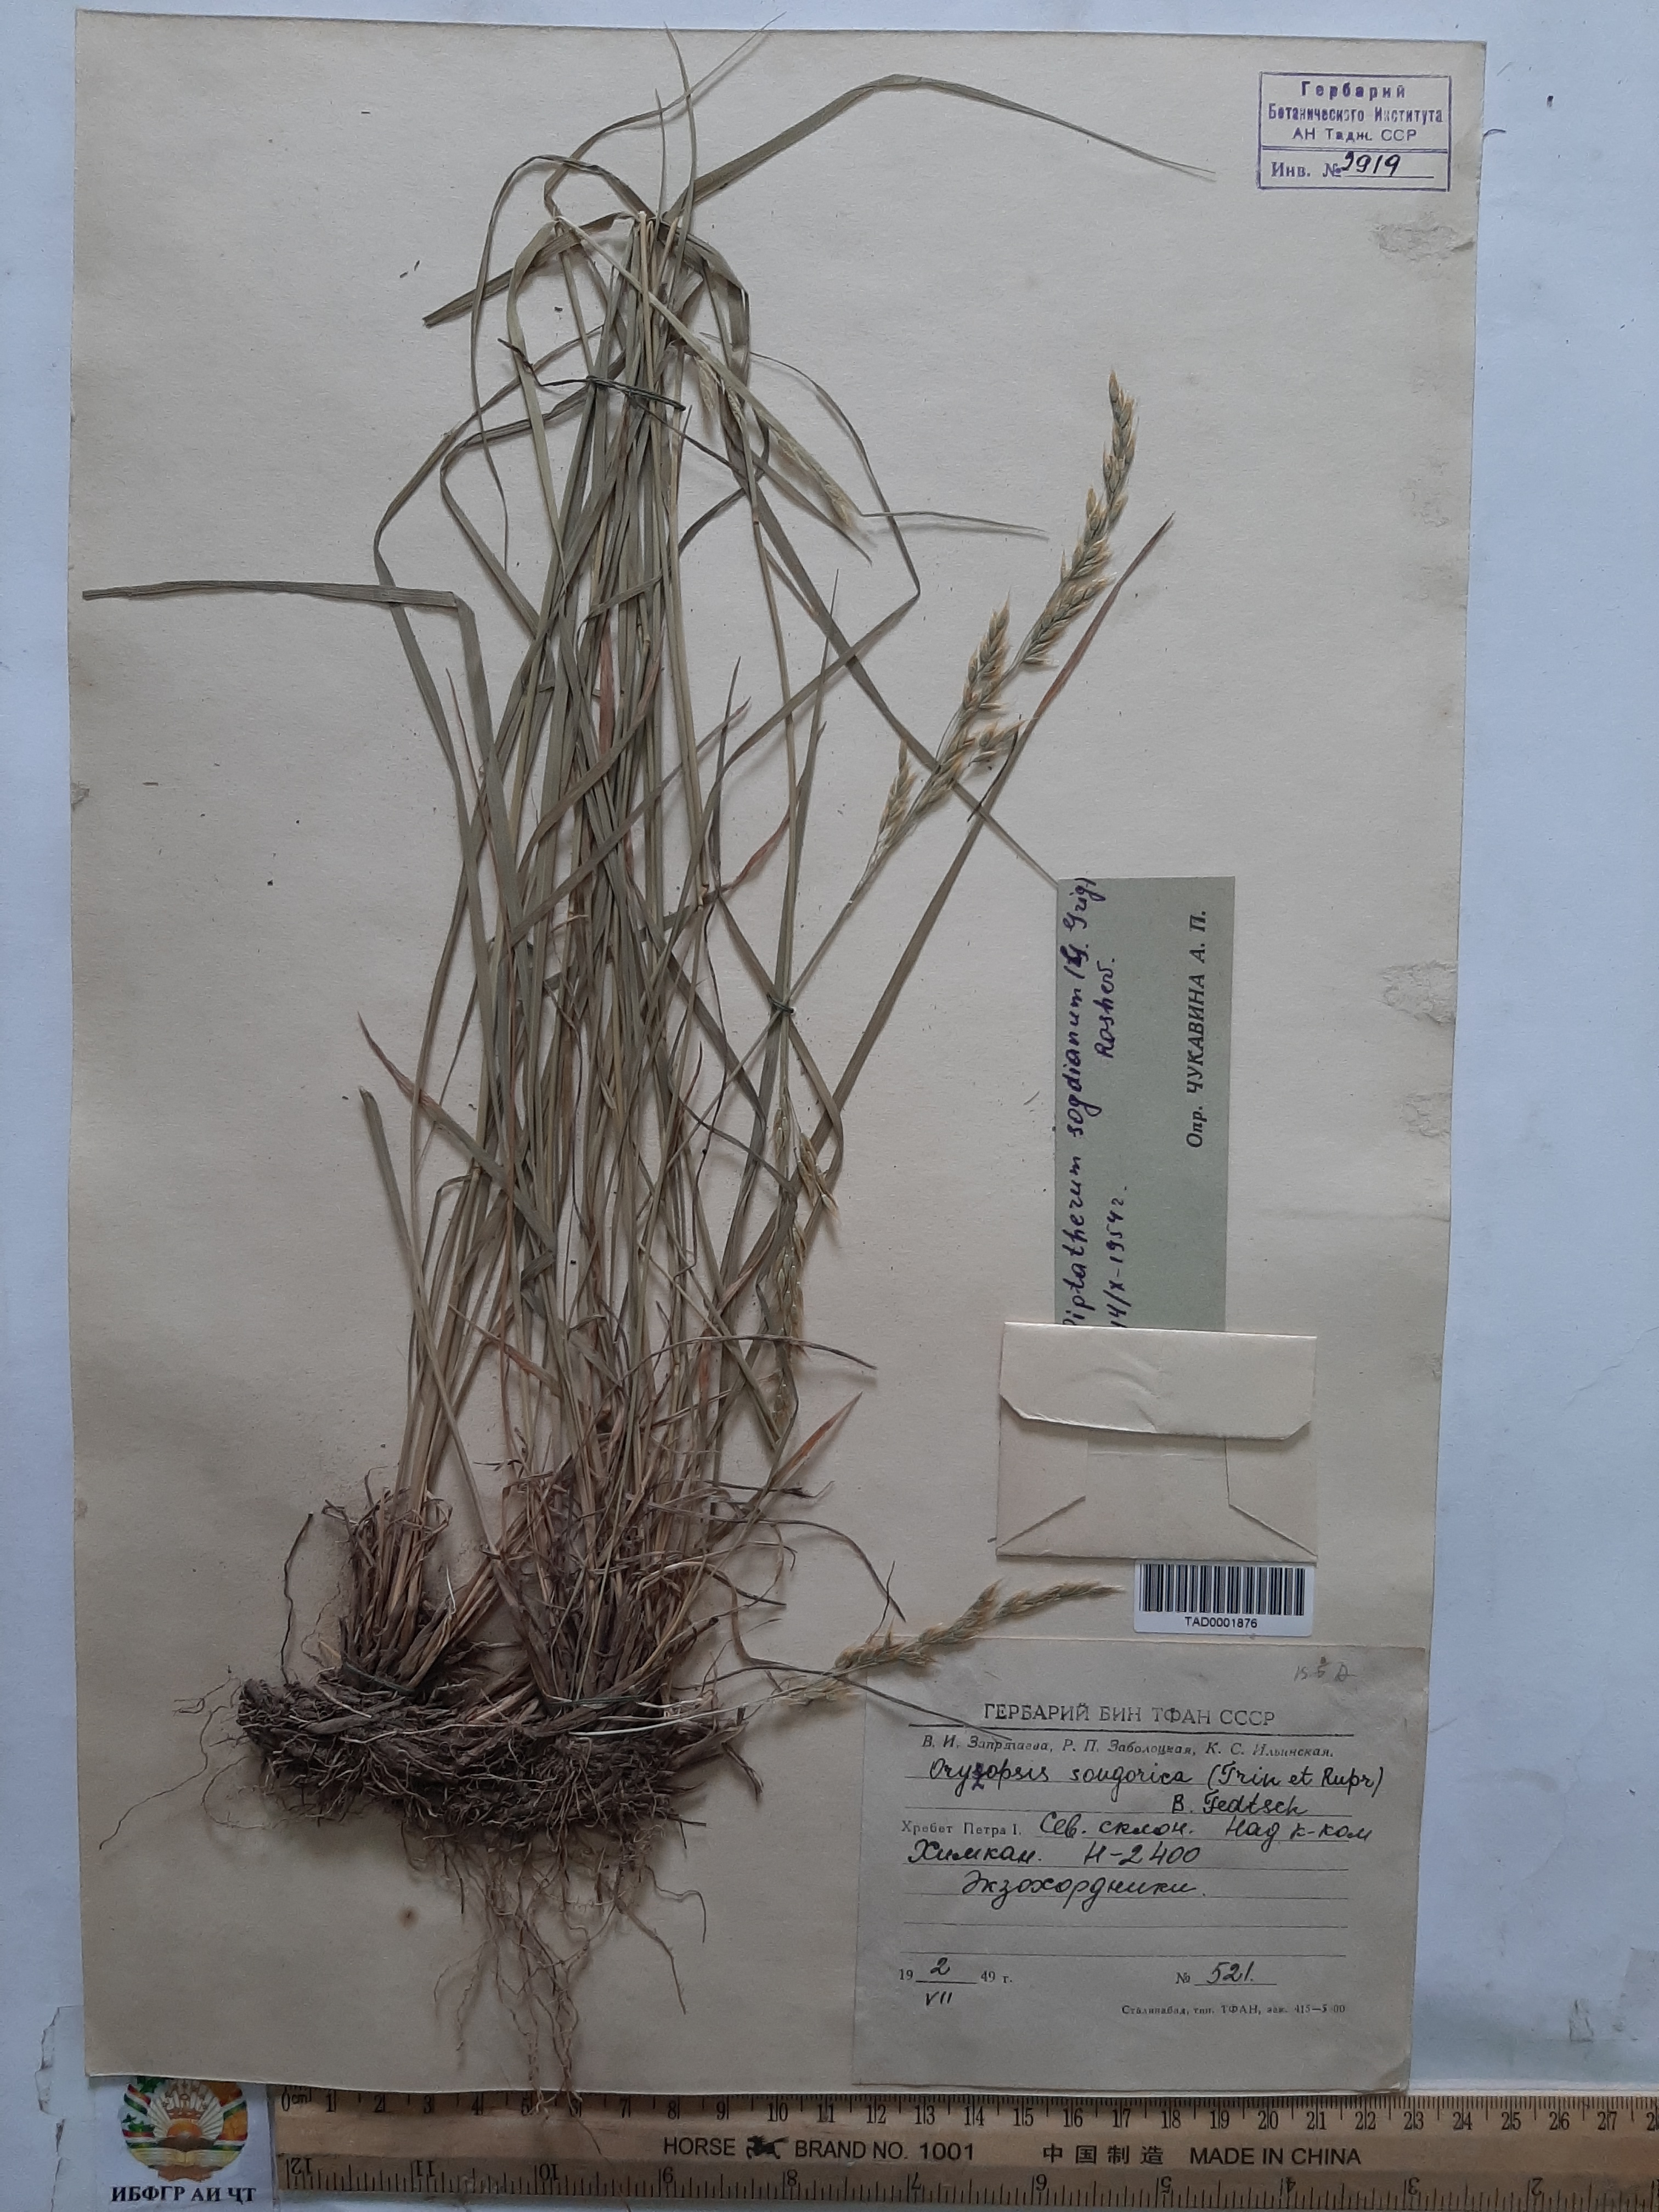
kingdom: Plantae
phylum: Tracheophyta
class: Liliopsida
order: Poales
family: Poaceae
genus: Piptatherum
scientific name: Piptatherum sogdianum
